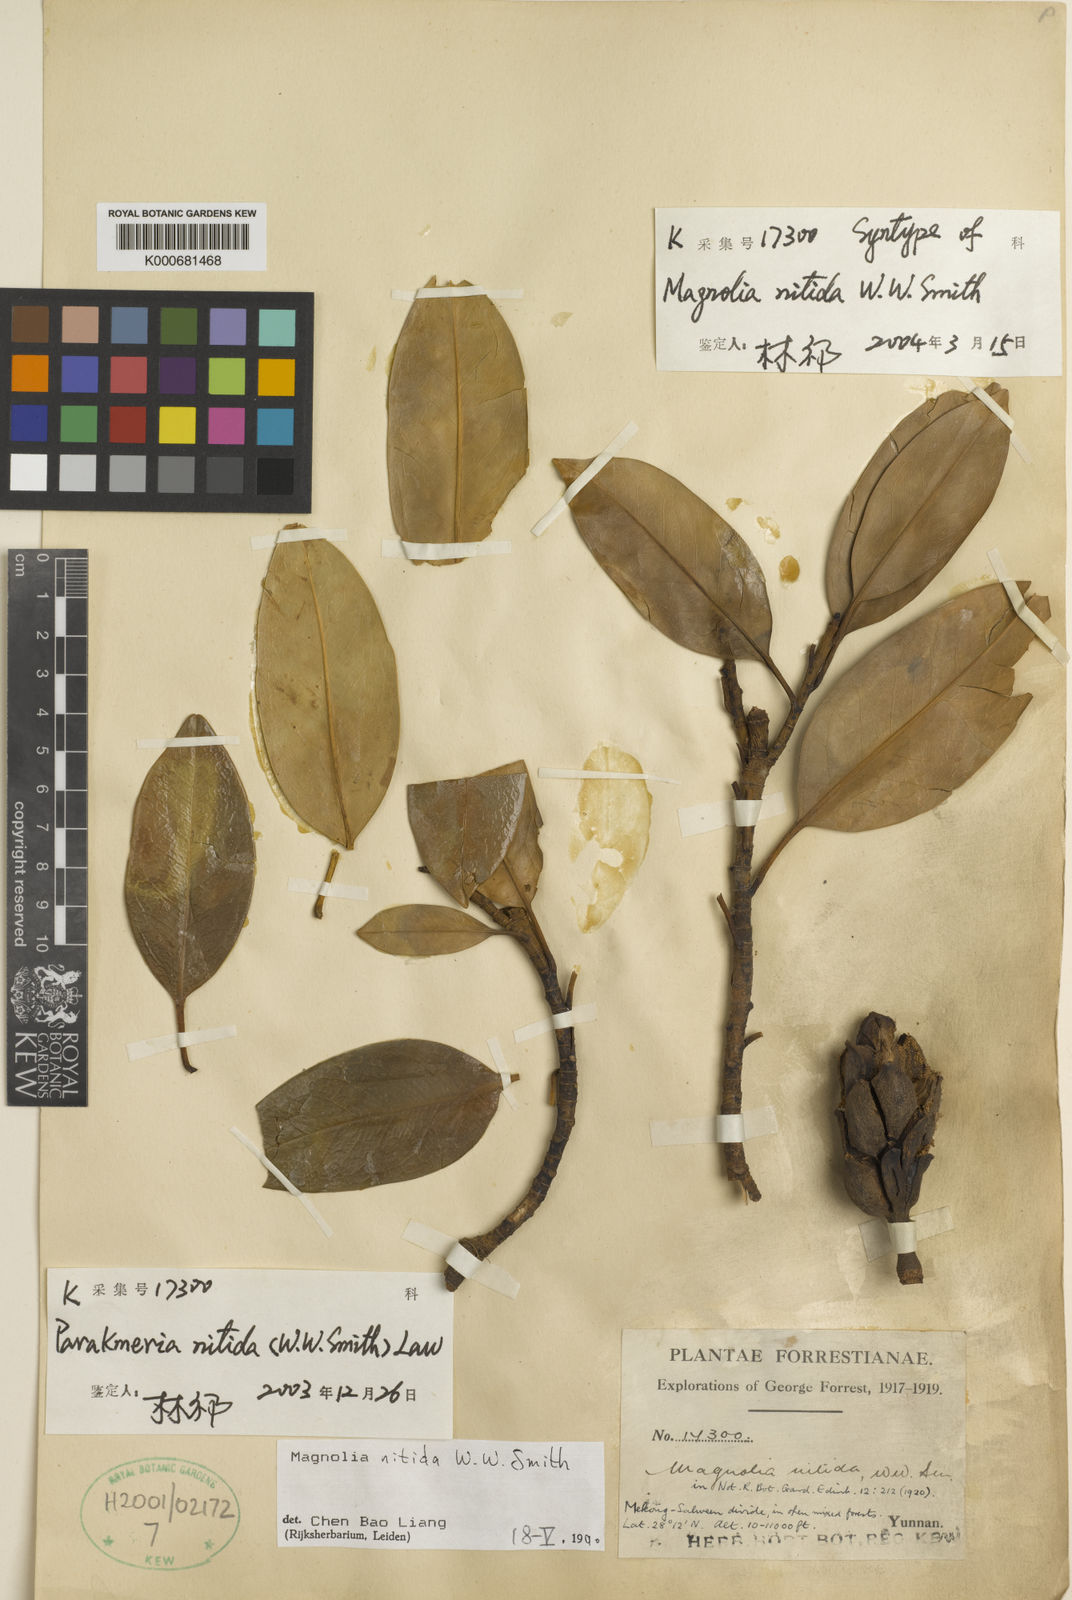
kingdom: Plantae
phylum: Tracheophyta
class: Magnoliopsida
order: Magnoliales
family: Magnoliaceae
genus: Magnolia
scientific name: Magnolia nitida
